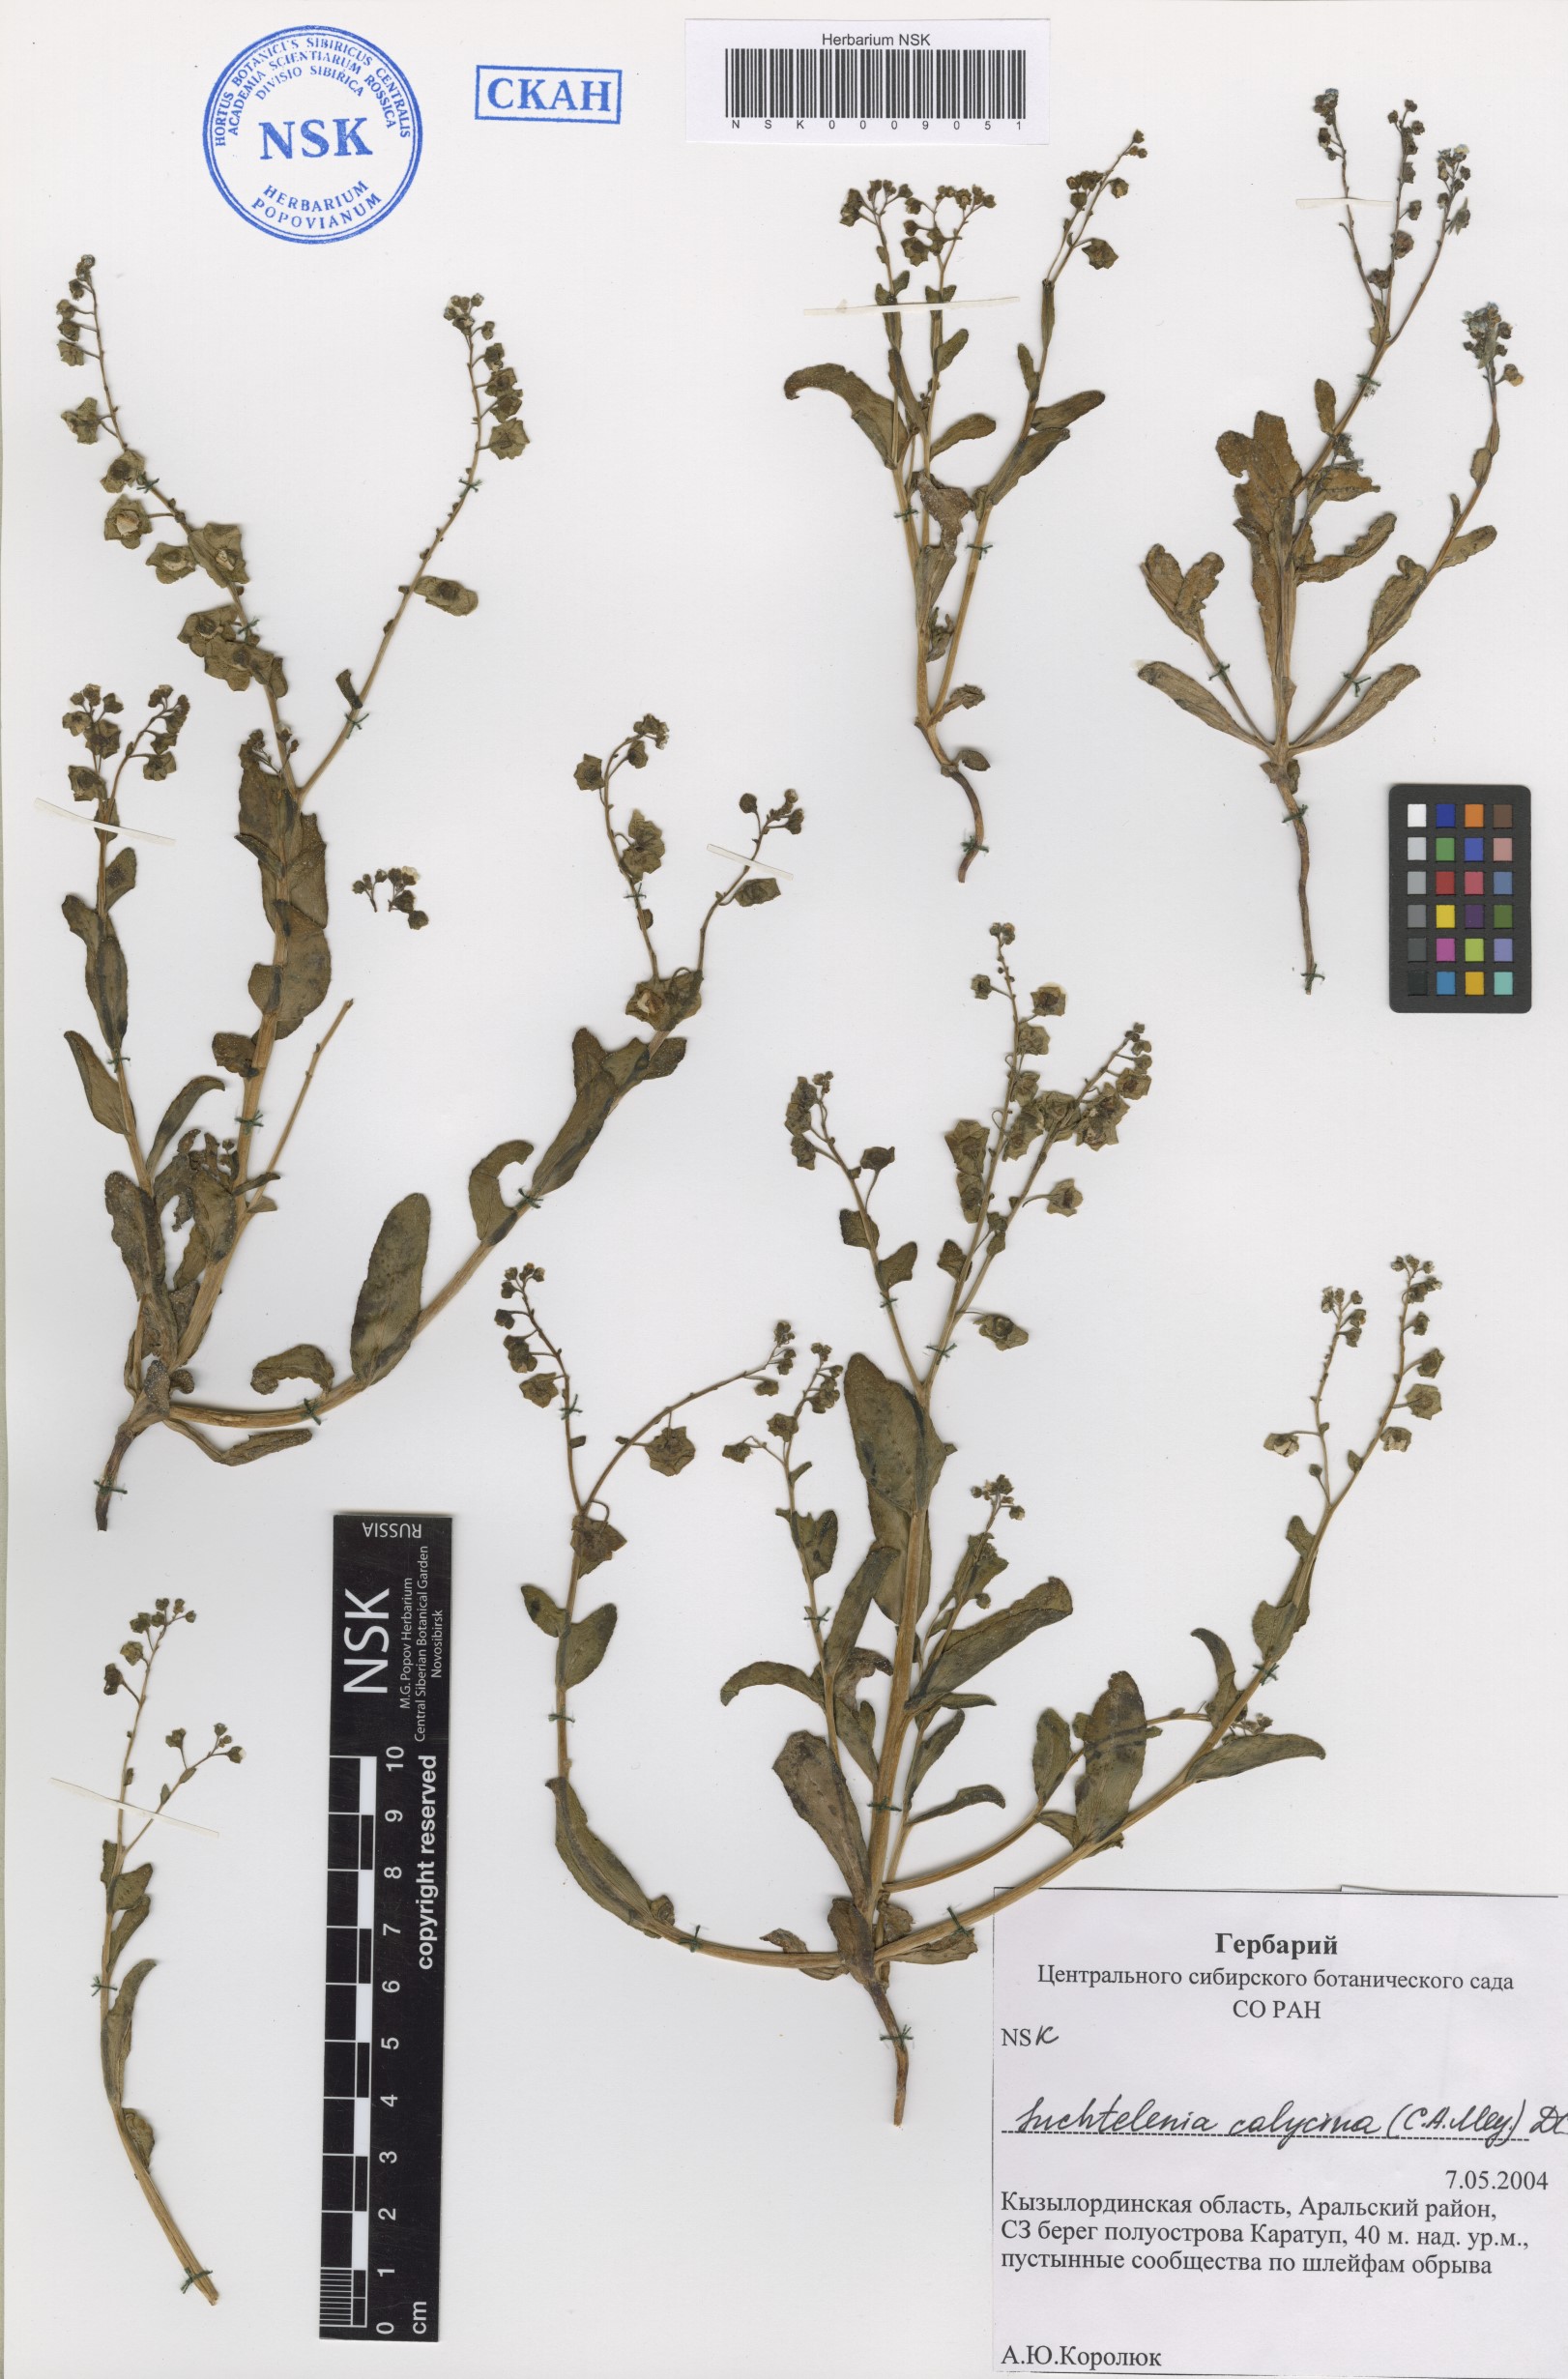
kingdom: Plantae
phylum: Tracheophyta
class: Magnoliopsida
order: Boraginales
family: Boraginaceae
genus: Suchtelenia
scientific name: Suchtelenia calycina
